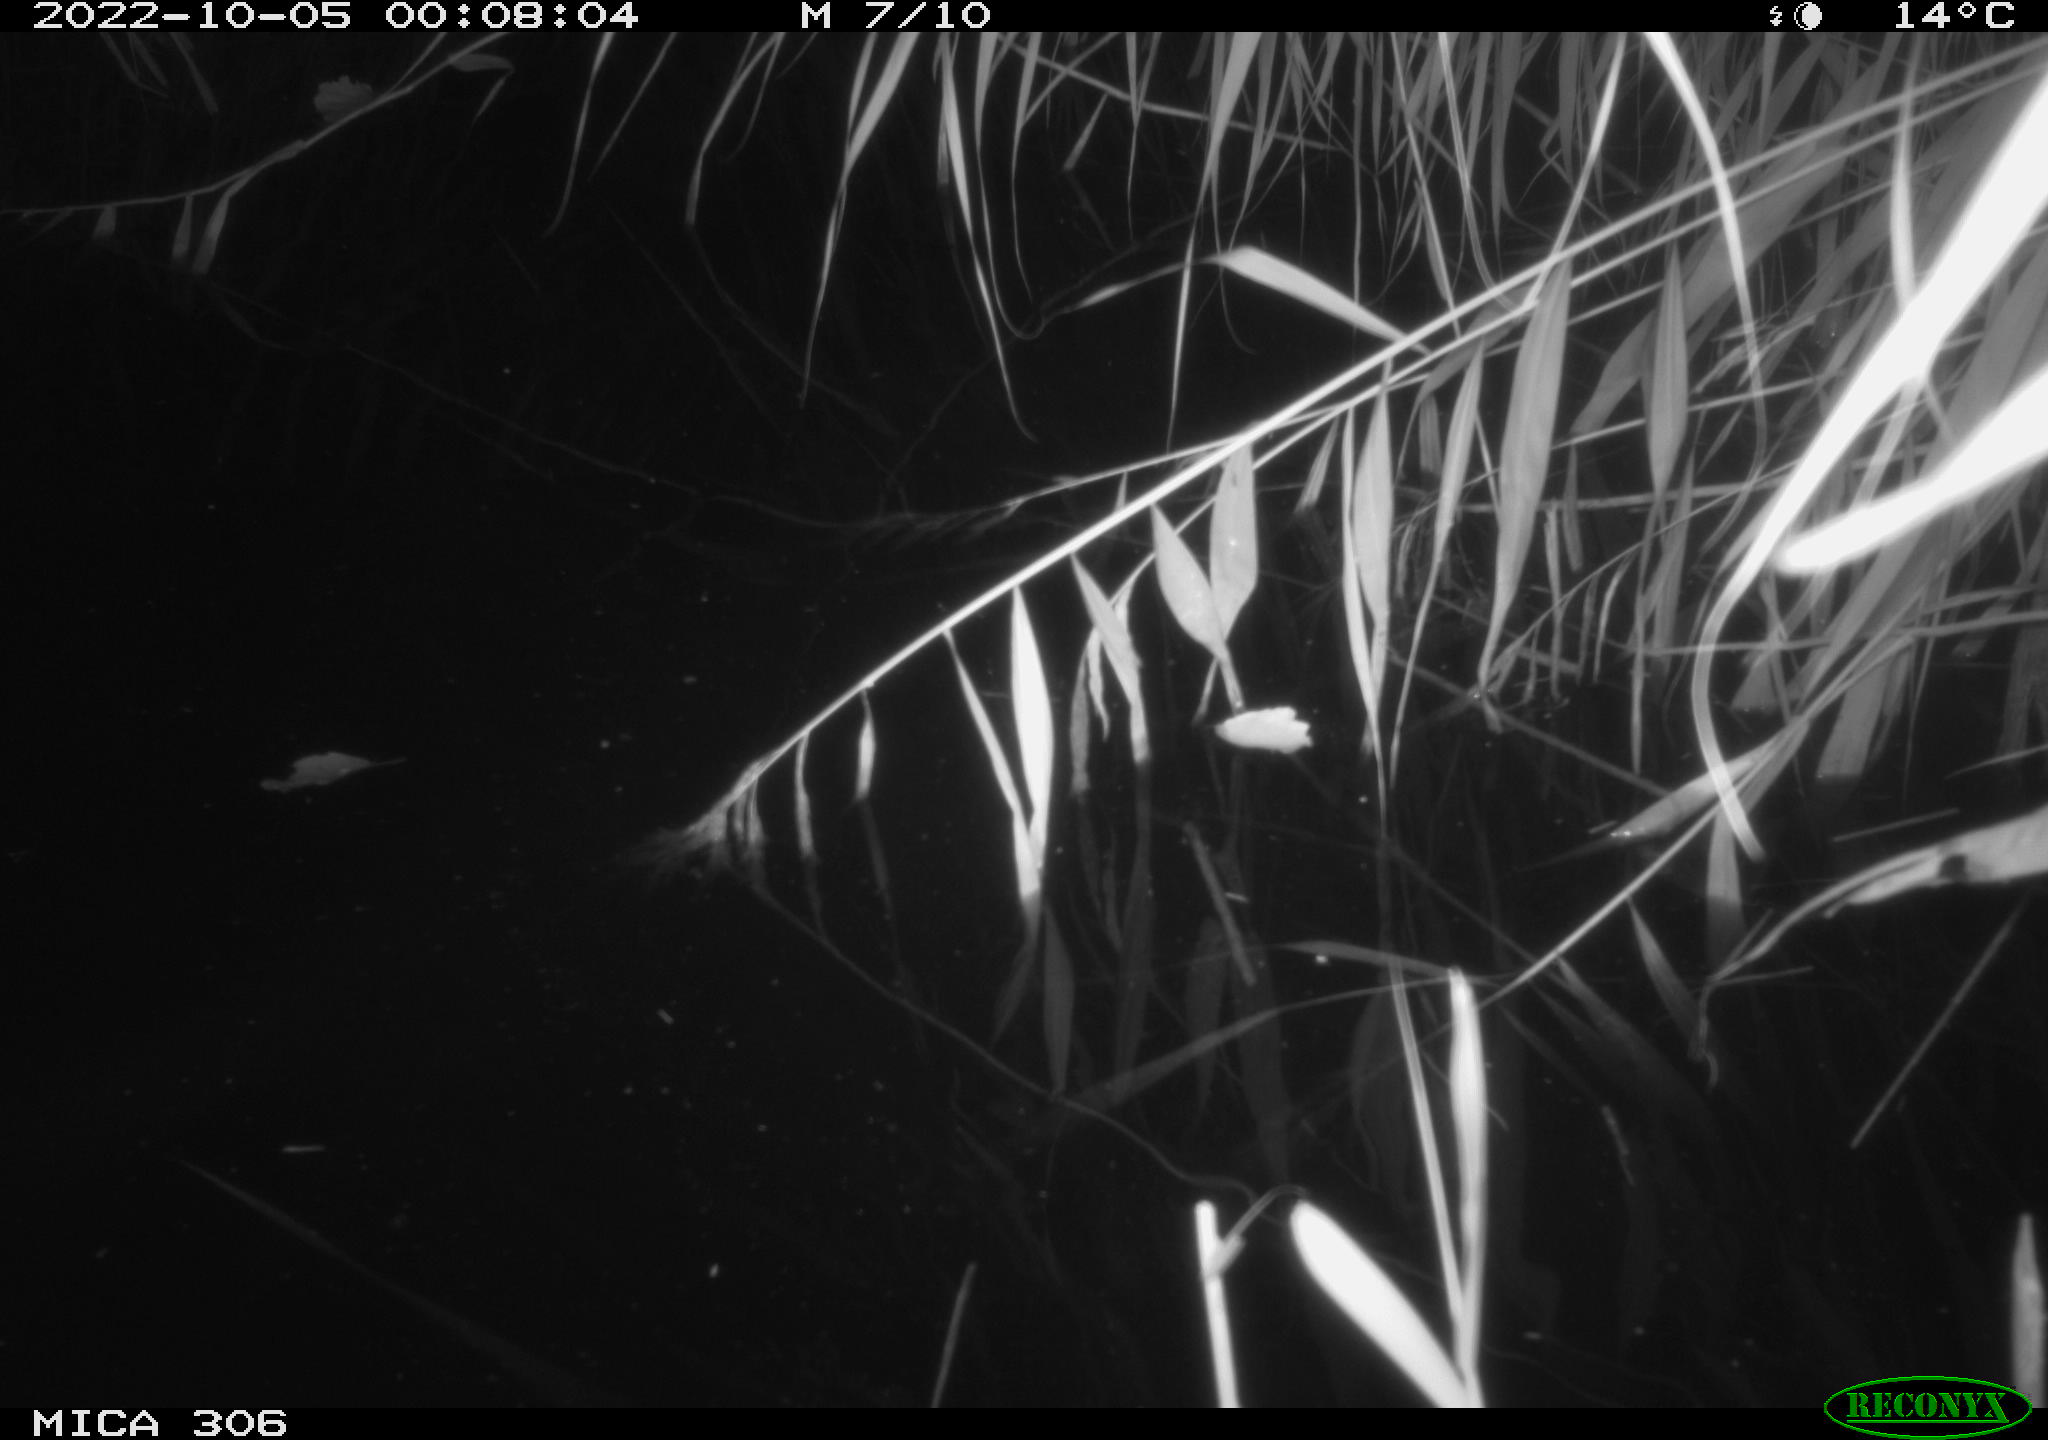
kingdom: Animalia
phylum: Chordata
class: Mammalia
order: Rodentia
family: Muridae
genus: Rattus
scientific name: Rattus norvegicus
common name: Brown rat
